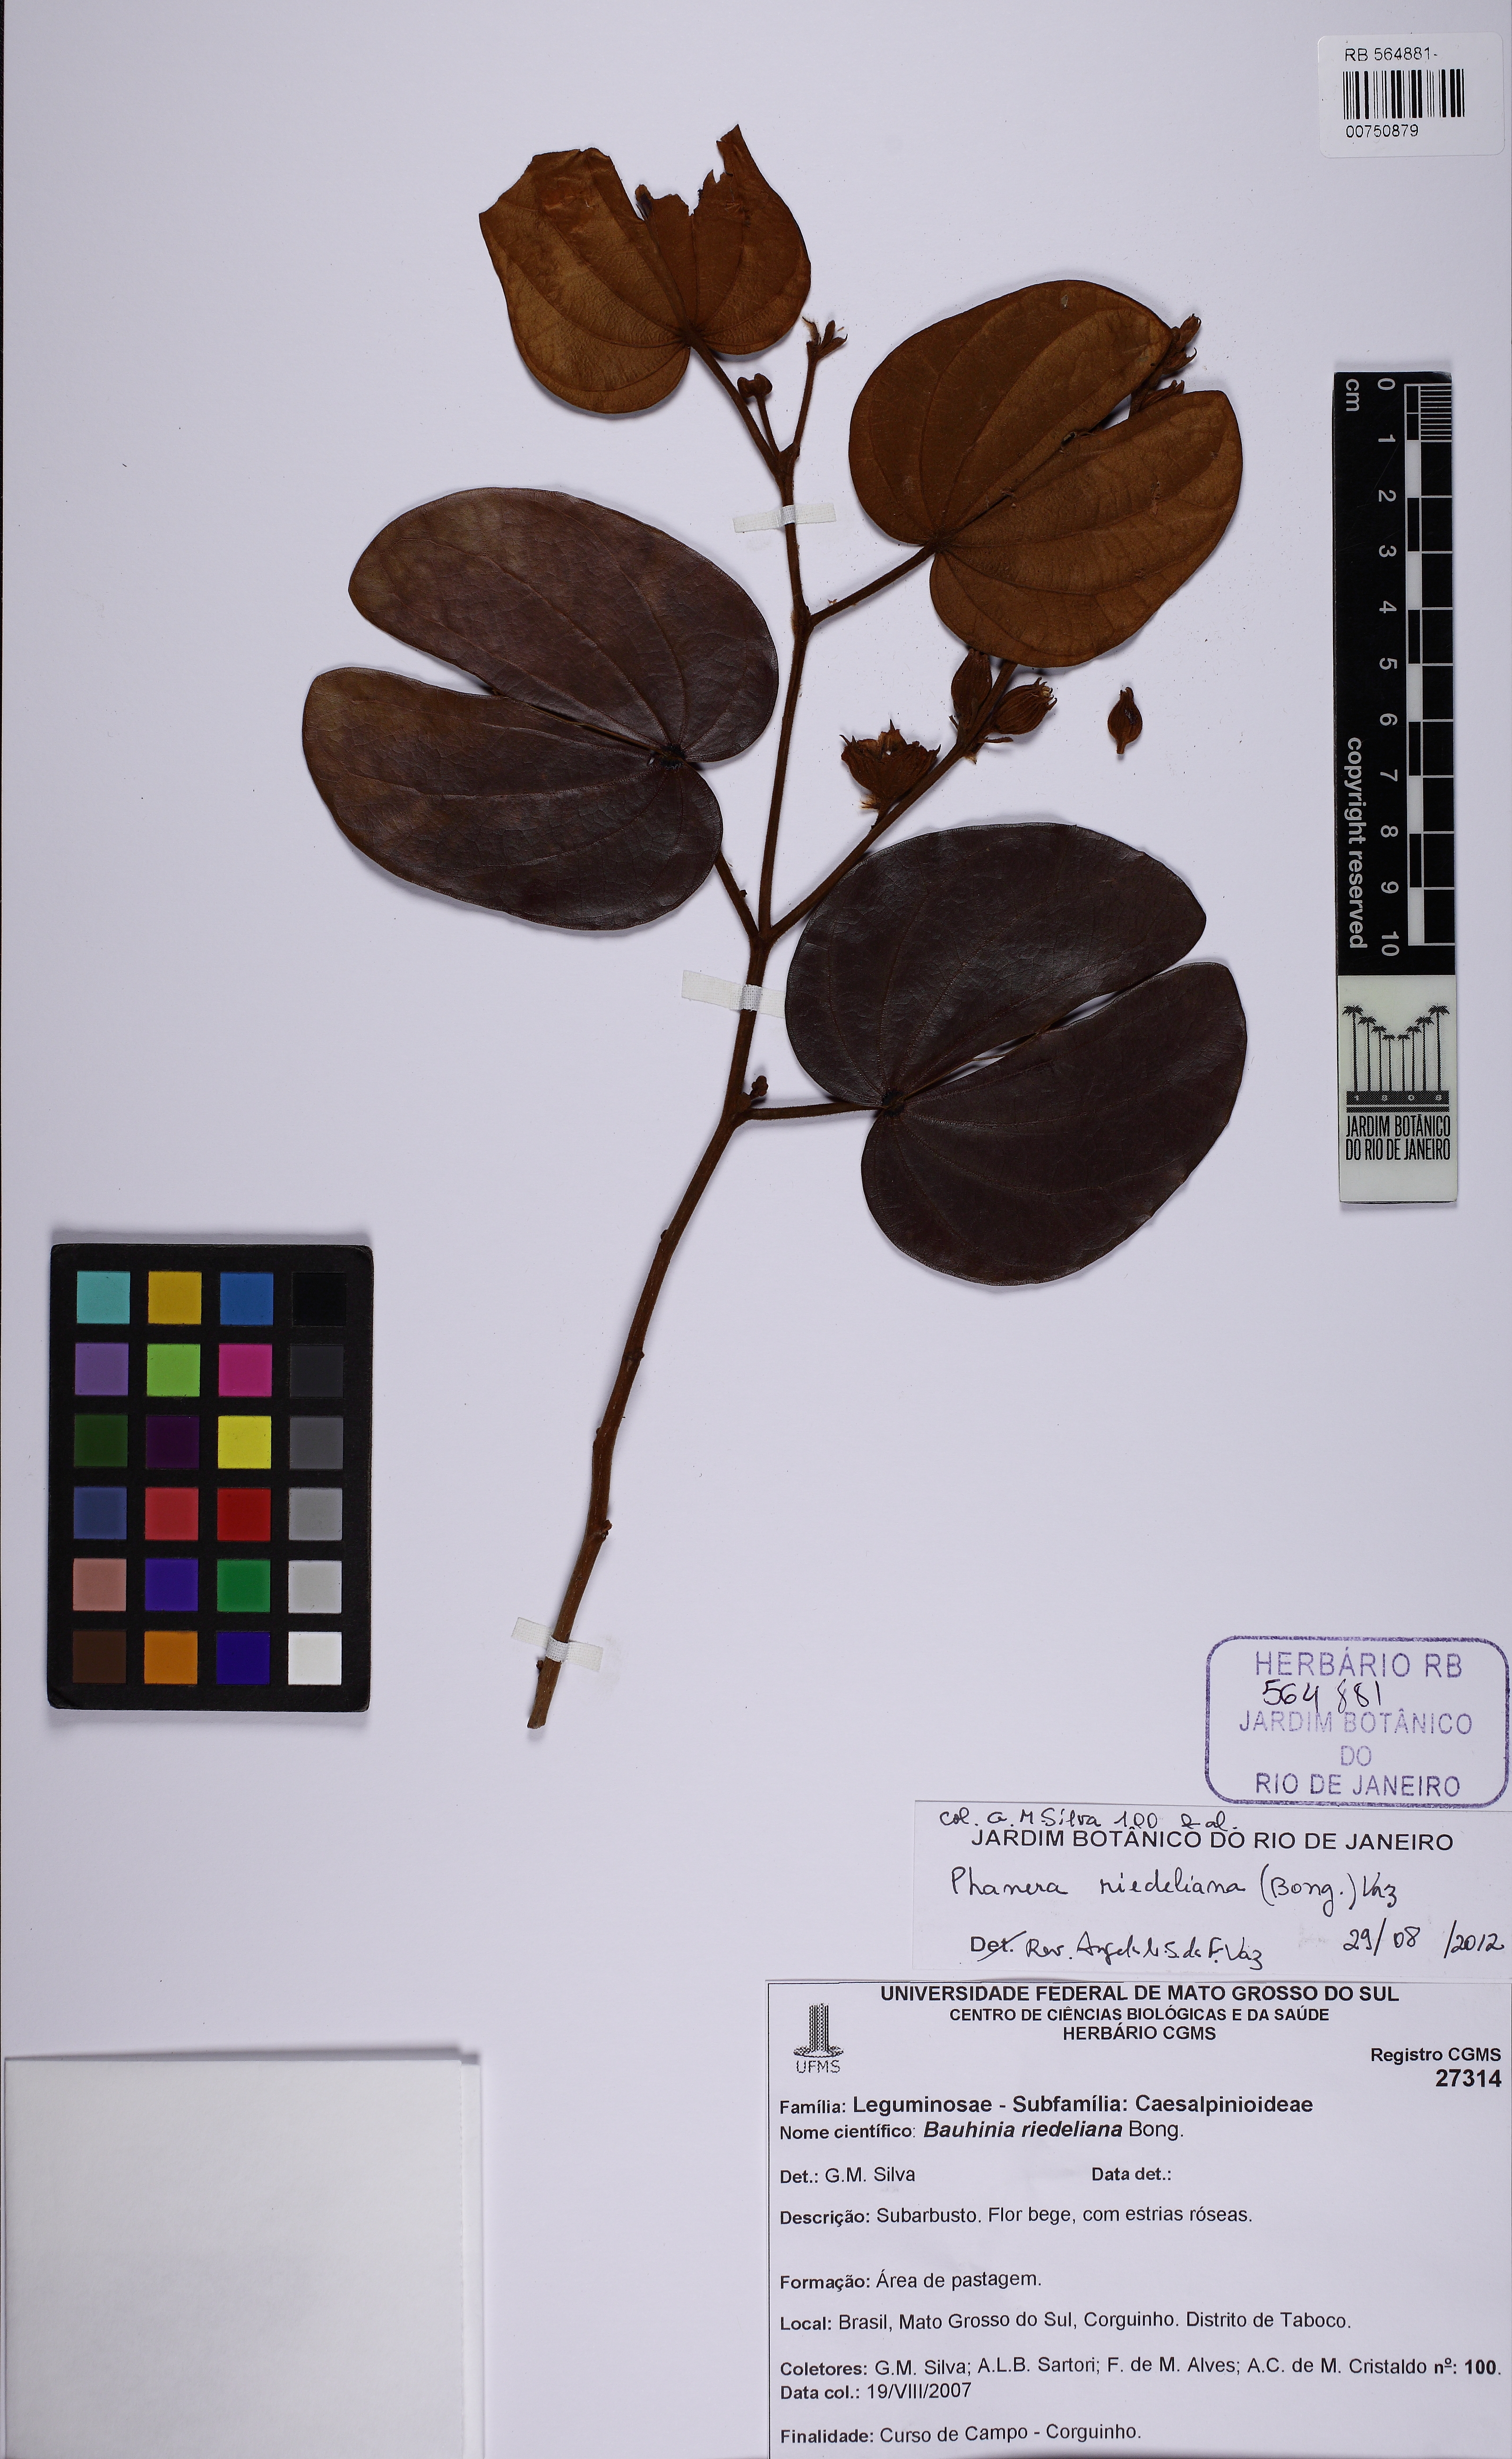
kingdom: Plantae
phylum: Tracheophyta
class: Magnoliopsida
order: Fabales
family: Fabaceae
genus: Schnella
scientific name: Schnella riedeliana
